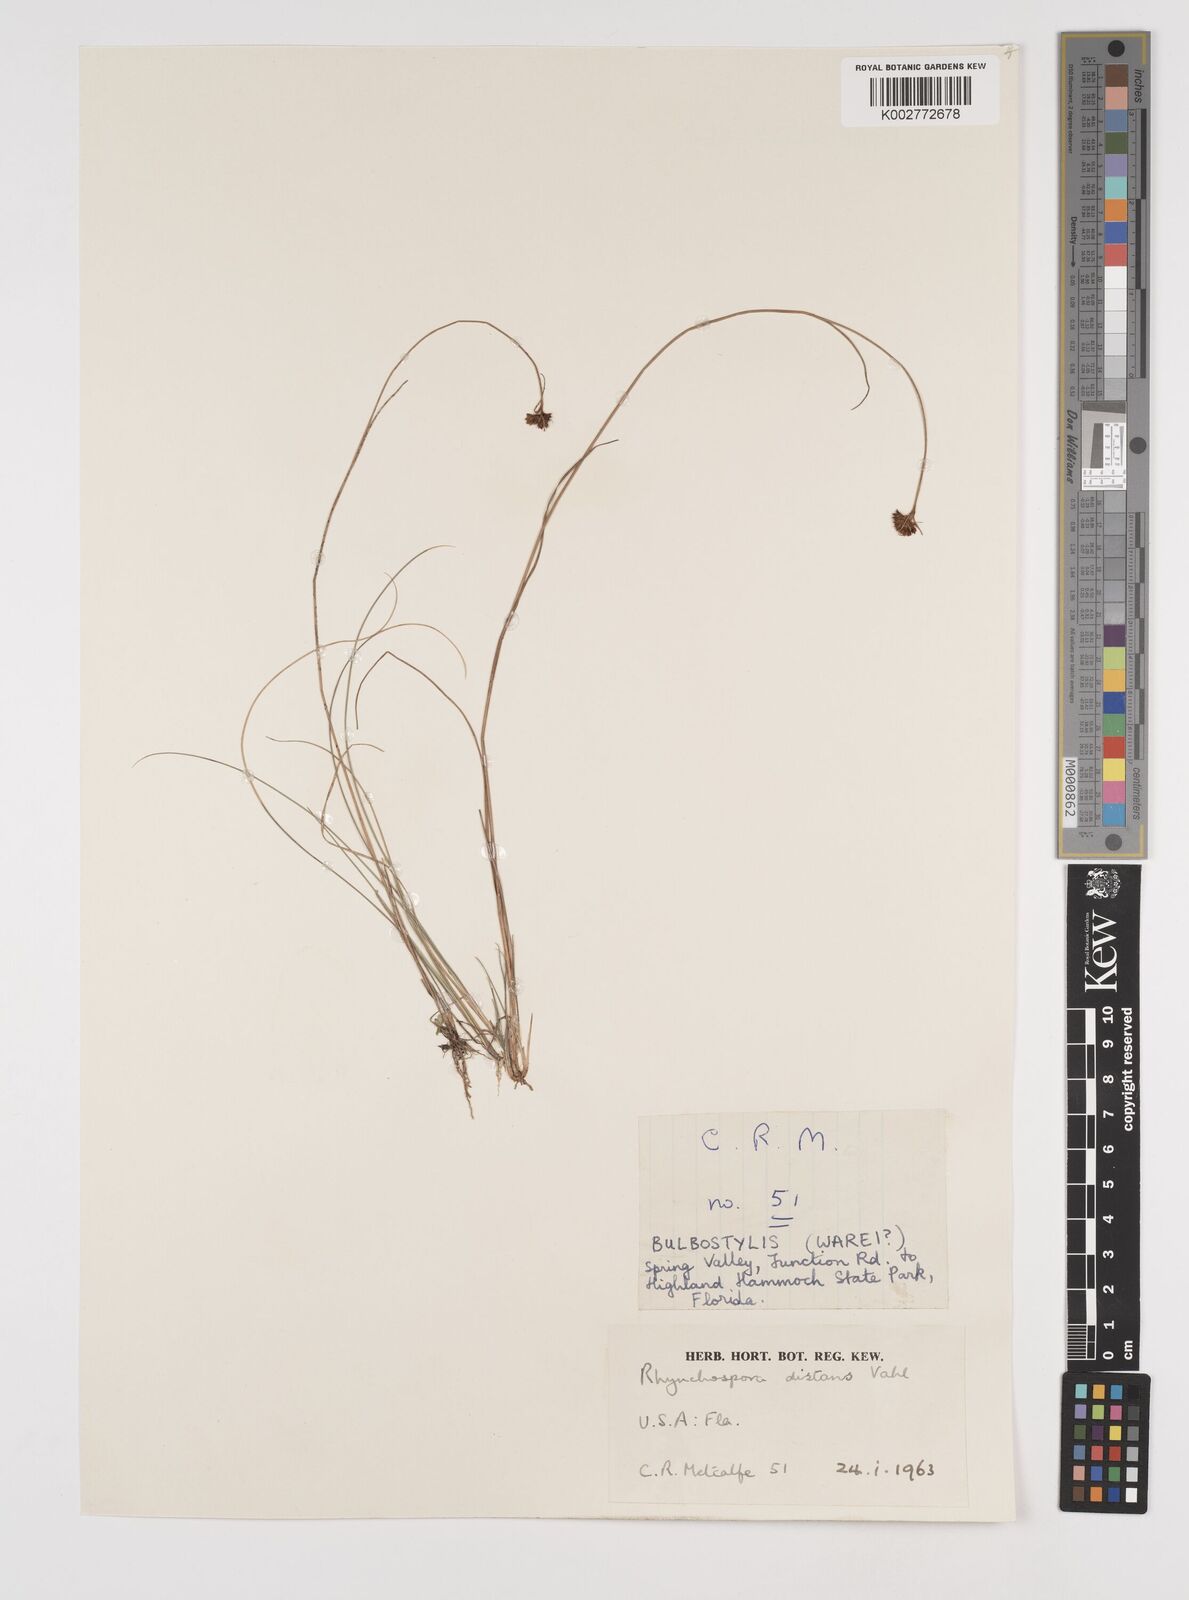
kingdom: Plantae
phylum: Tracheophyta
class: Liliopsida
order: Poales
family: Cyperaceae
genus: Rhynchospora
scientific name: Rhynchospora fascicularis
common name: Fascicled beak sedge
